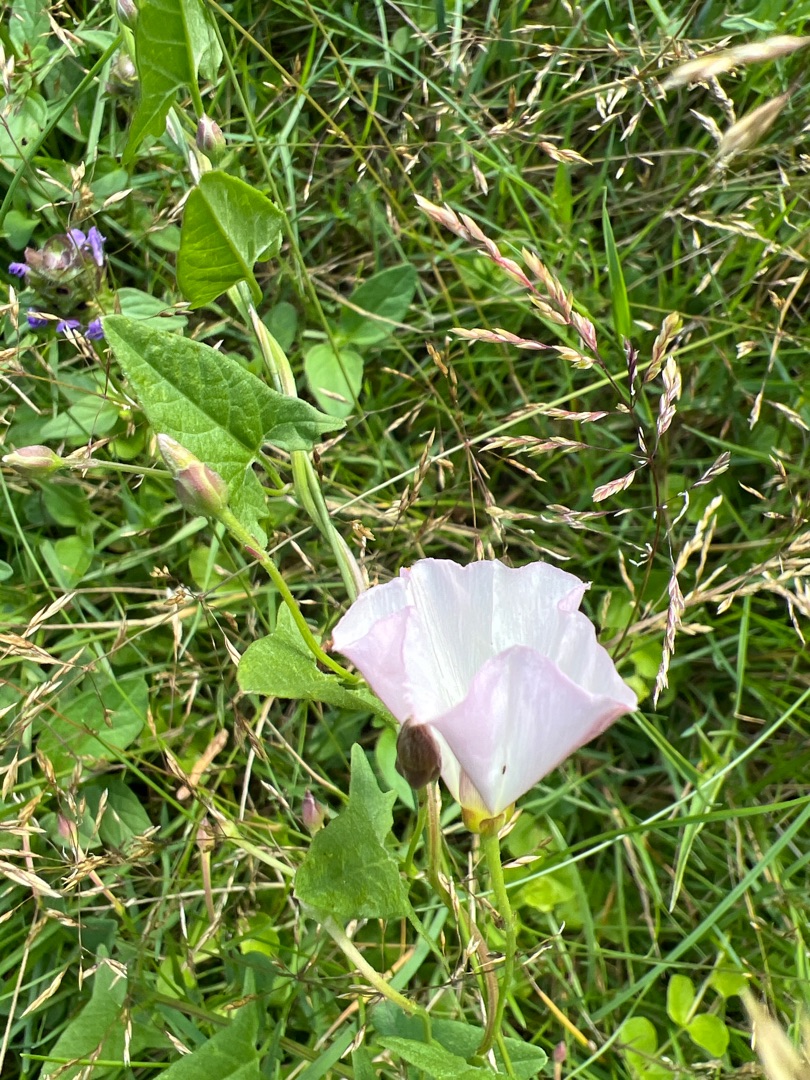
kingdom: Plantae
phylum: Tracheophyta
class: Magnoliopsida
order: Solanales
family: Convolvulaceae
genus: Convolvulus
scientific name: Convolvulus arvensis
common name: Ager-snerle
